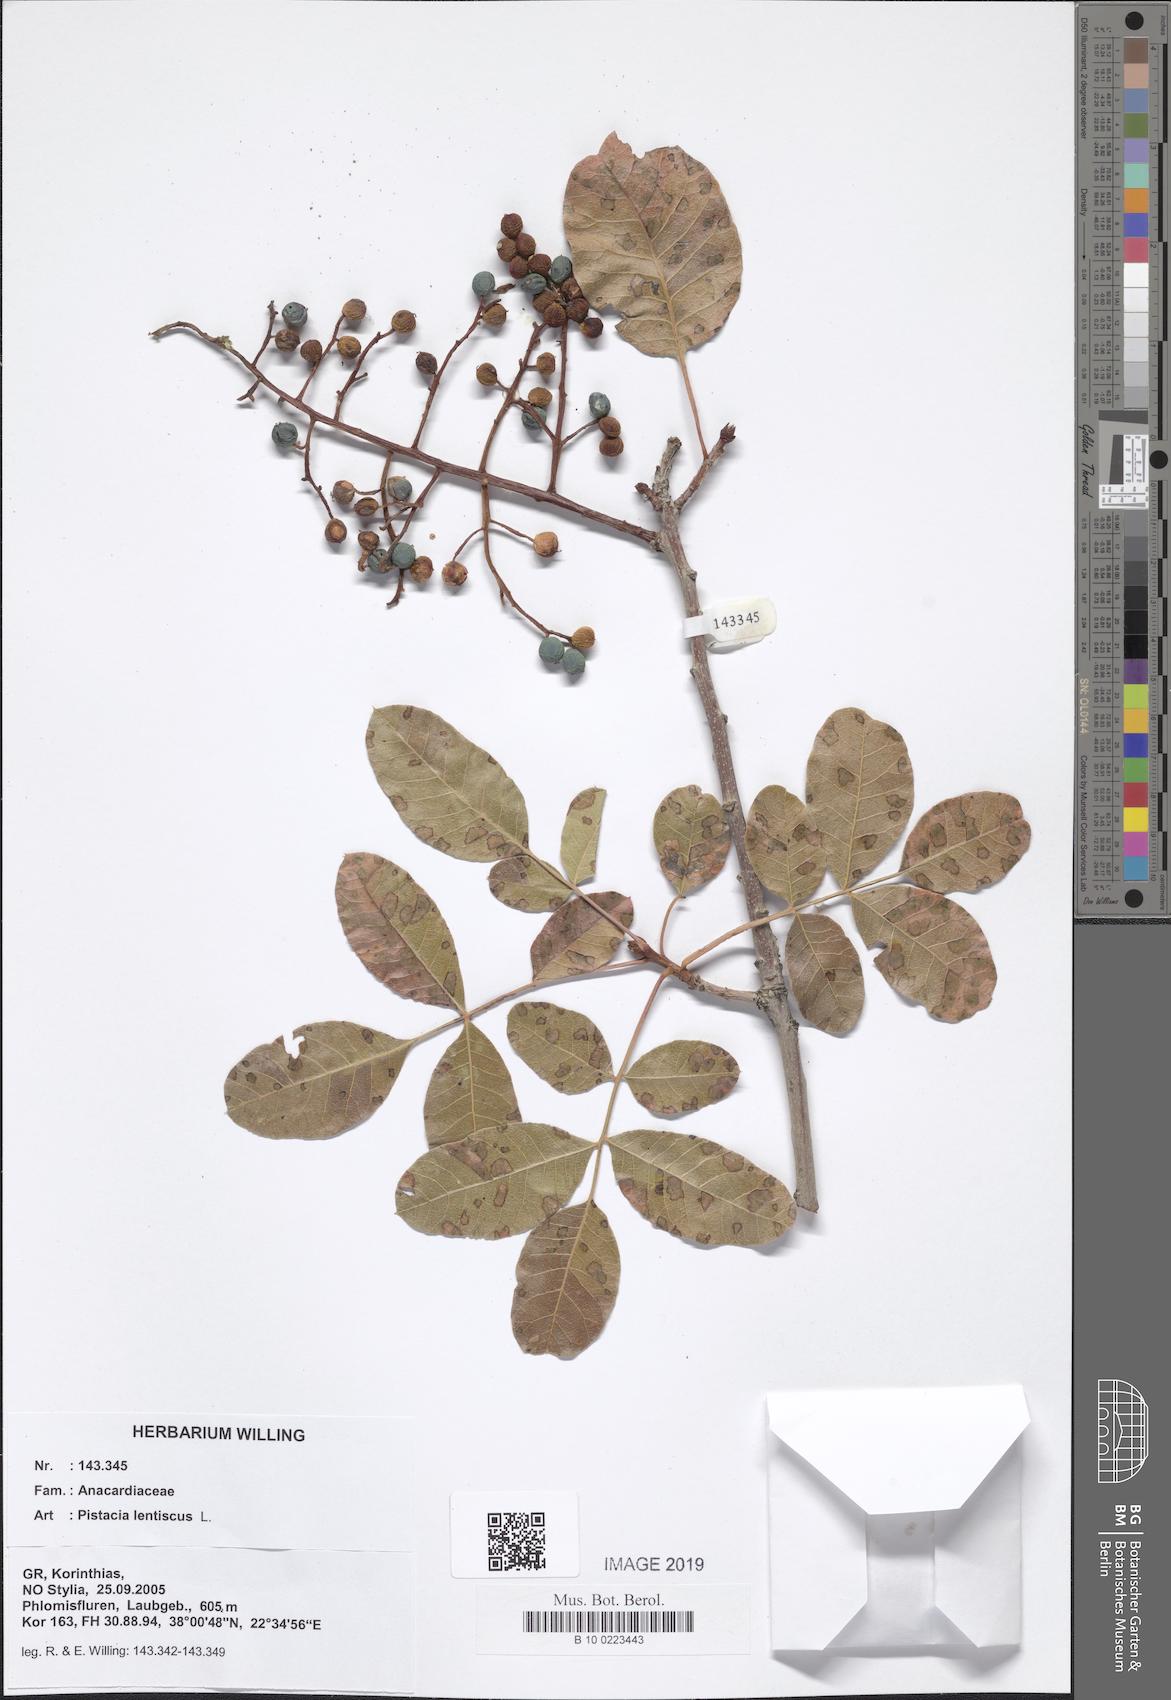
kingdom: Plantae
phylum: Tracheophyta
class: Magnoliopsida
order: Sapindales
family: Anacardiaceae
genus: Pistacia
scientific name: Pistacia lentiscus
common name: Lentisk
